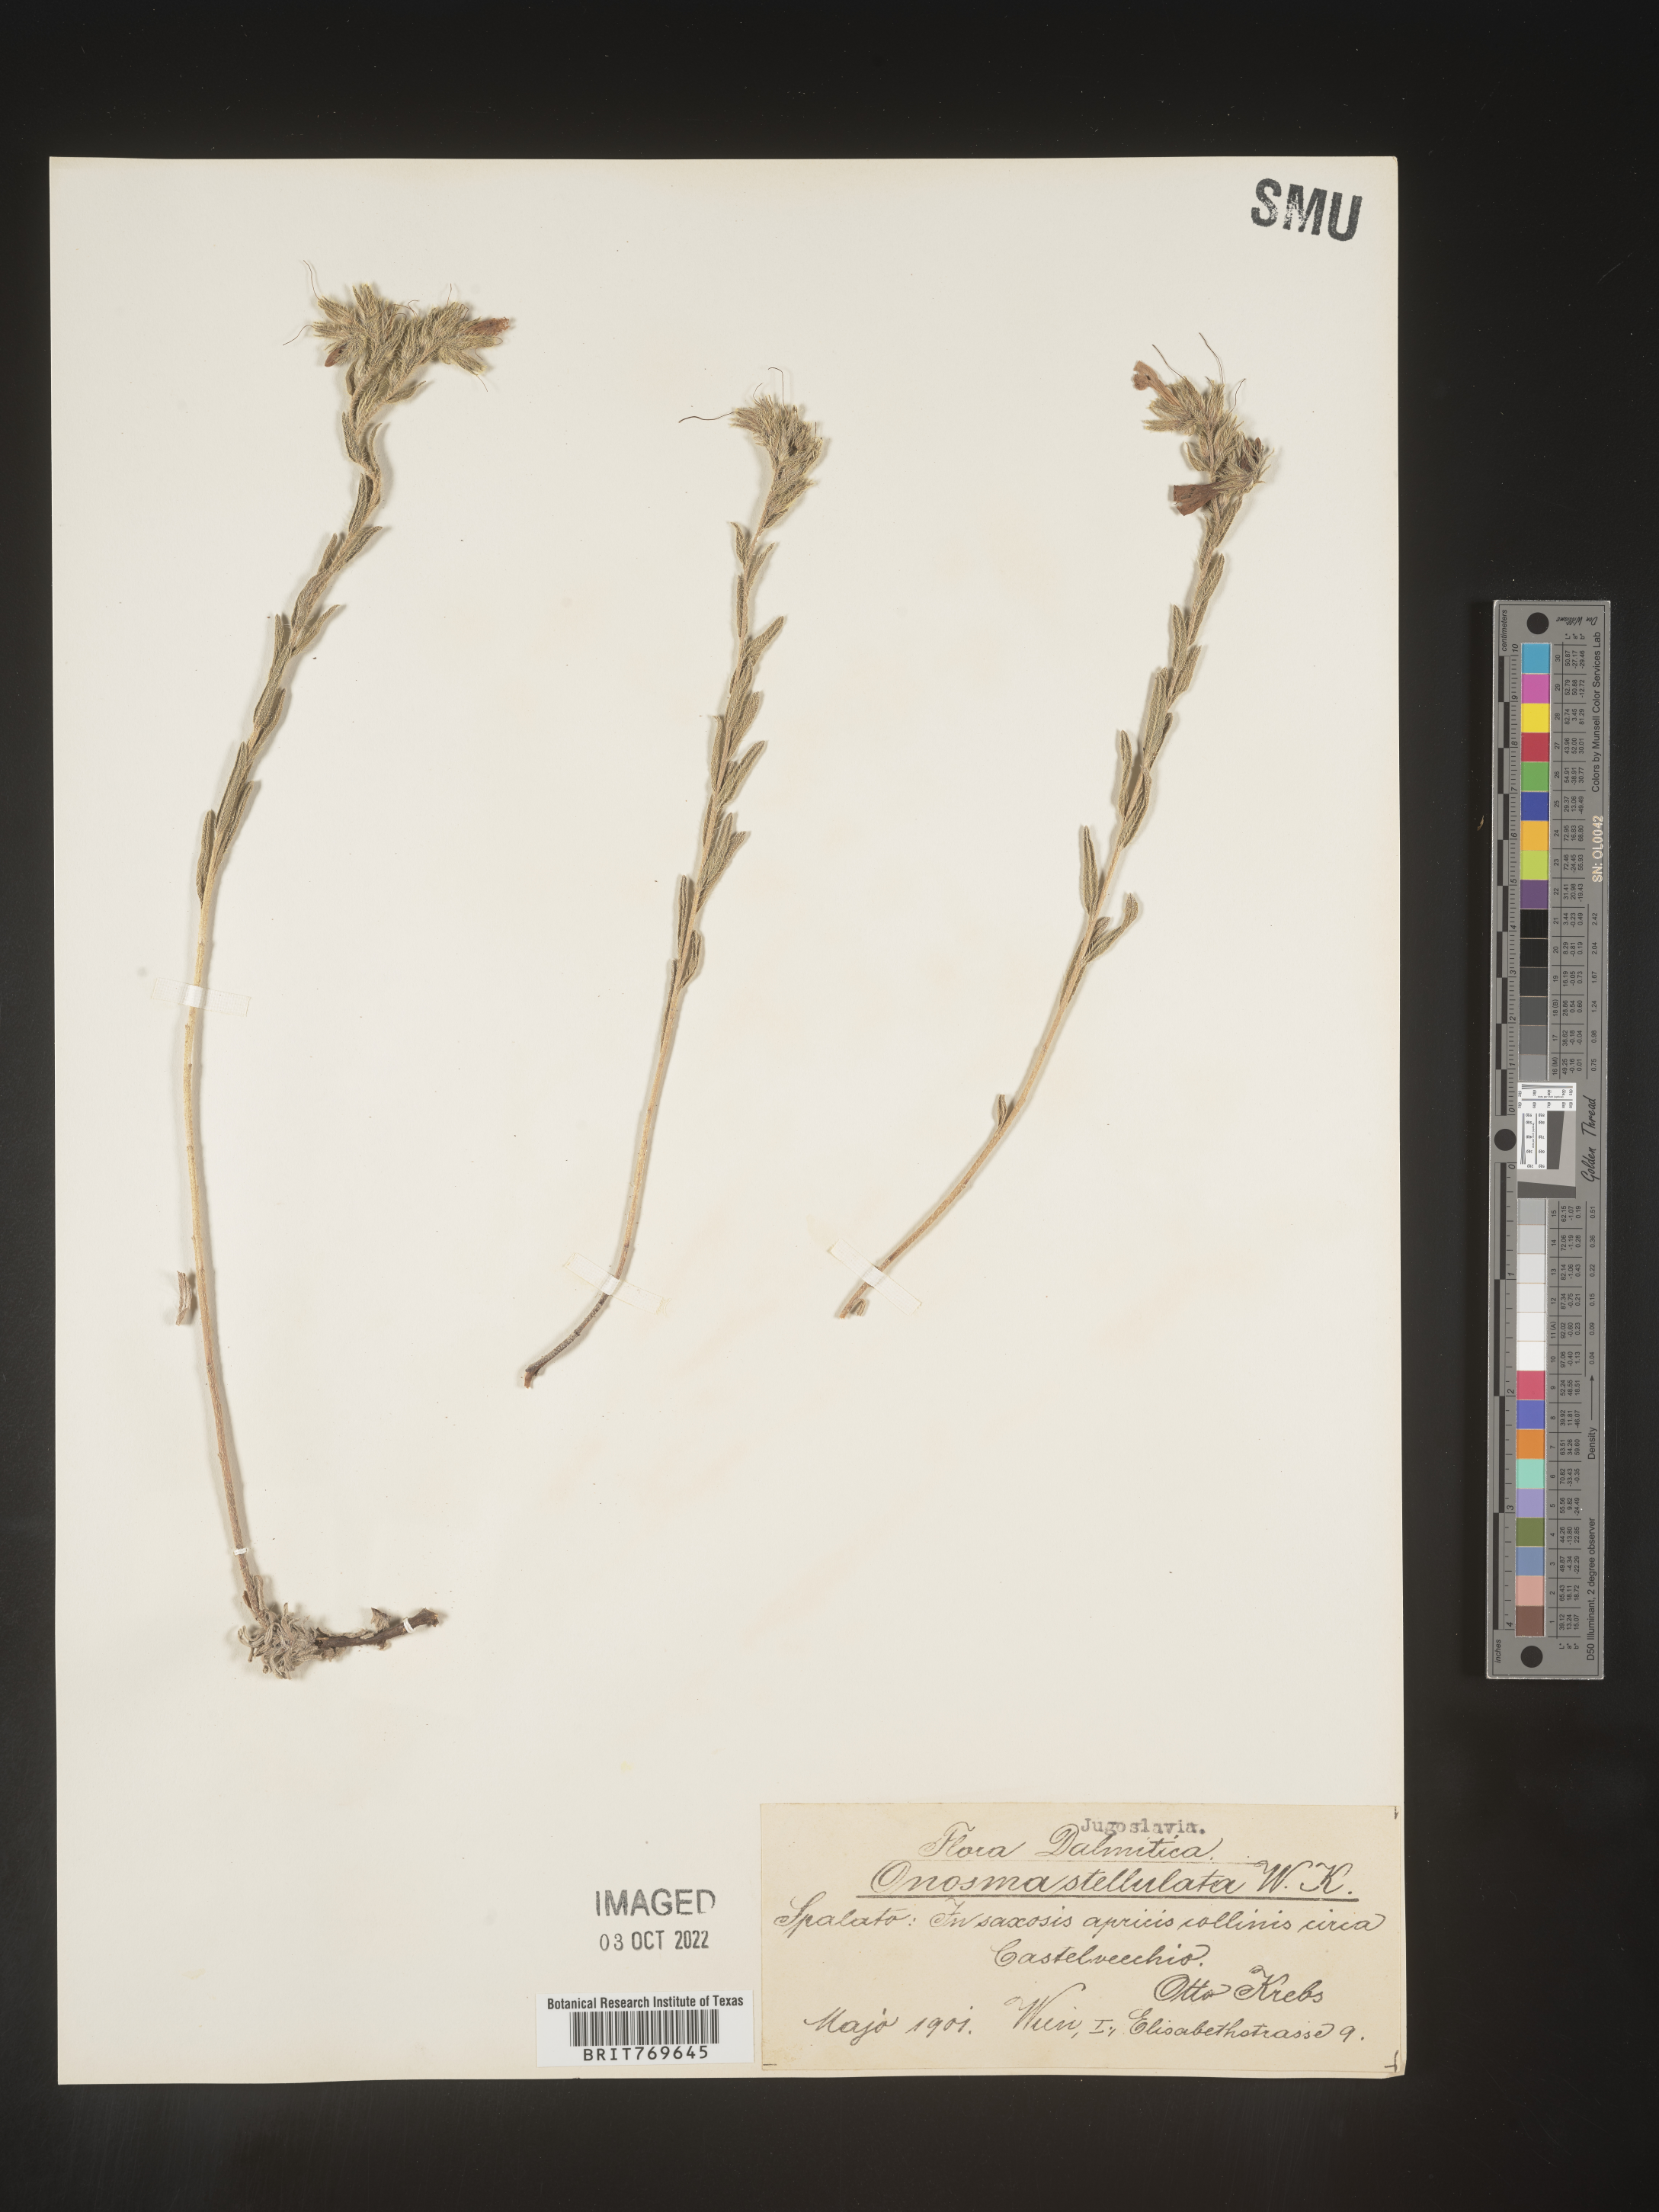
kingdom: Plantae
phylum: Tracheophyta
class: Magnoliopsida
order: Boraginales
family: Boraginaceae
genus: Onosma
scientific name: Onosma
